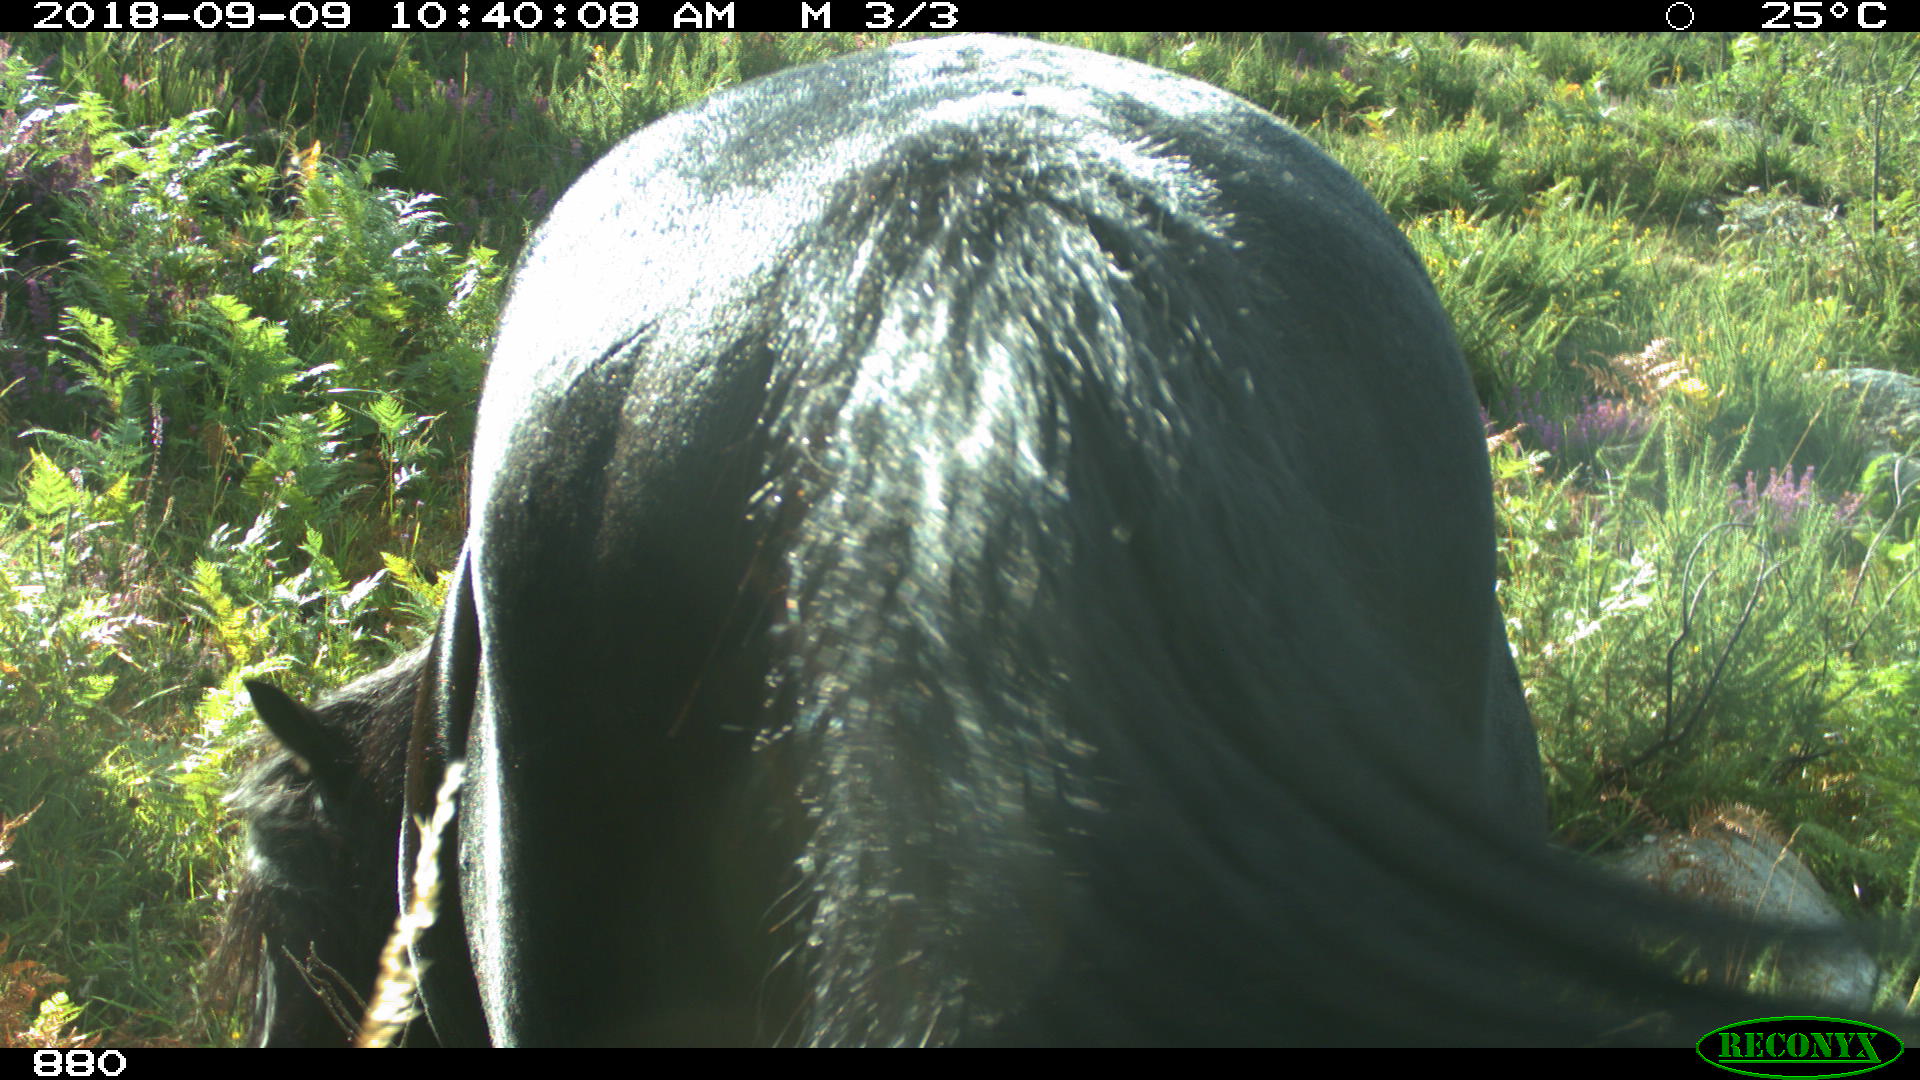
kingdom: Animalia
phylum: Chordata
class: Mammalia
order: Perissodactyla
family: Equidae
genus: Equus
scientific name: Equus caballus
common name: Horse
